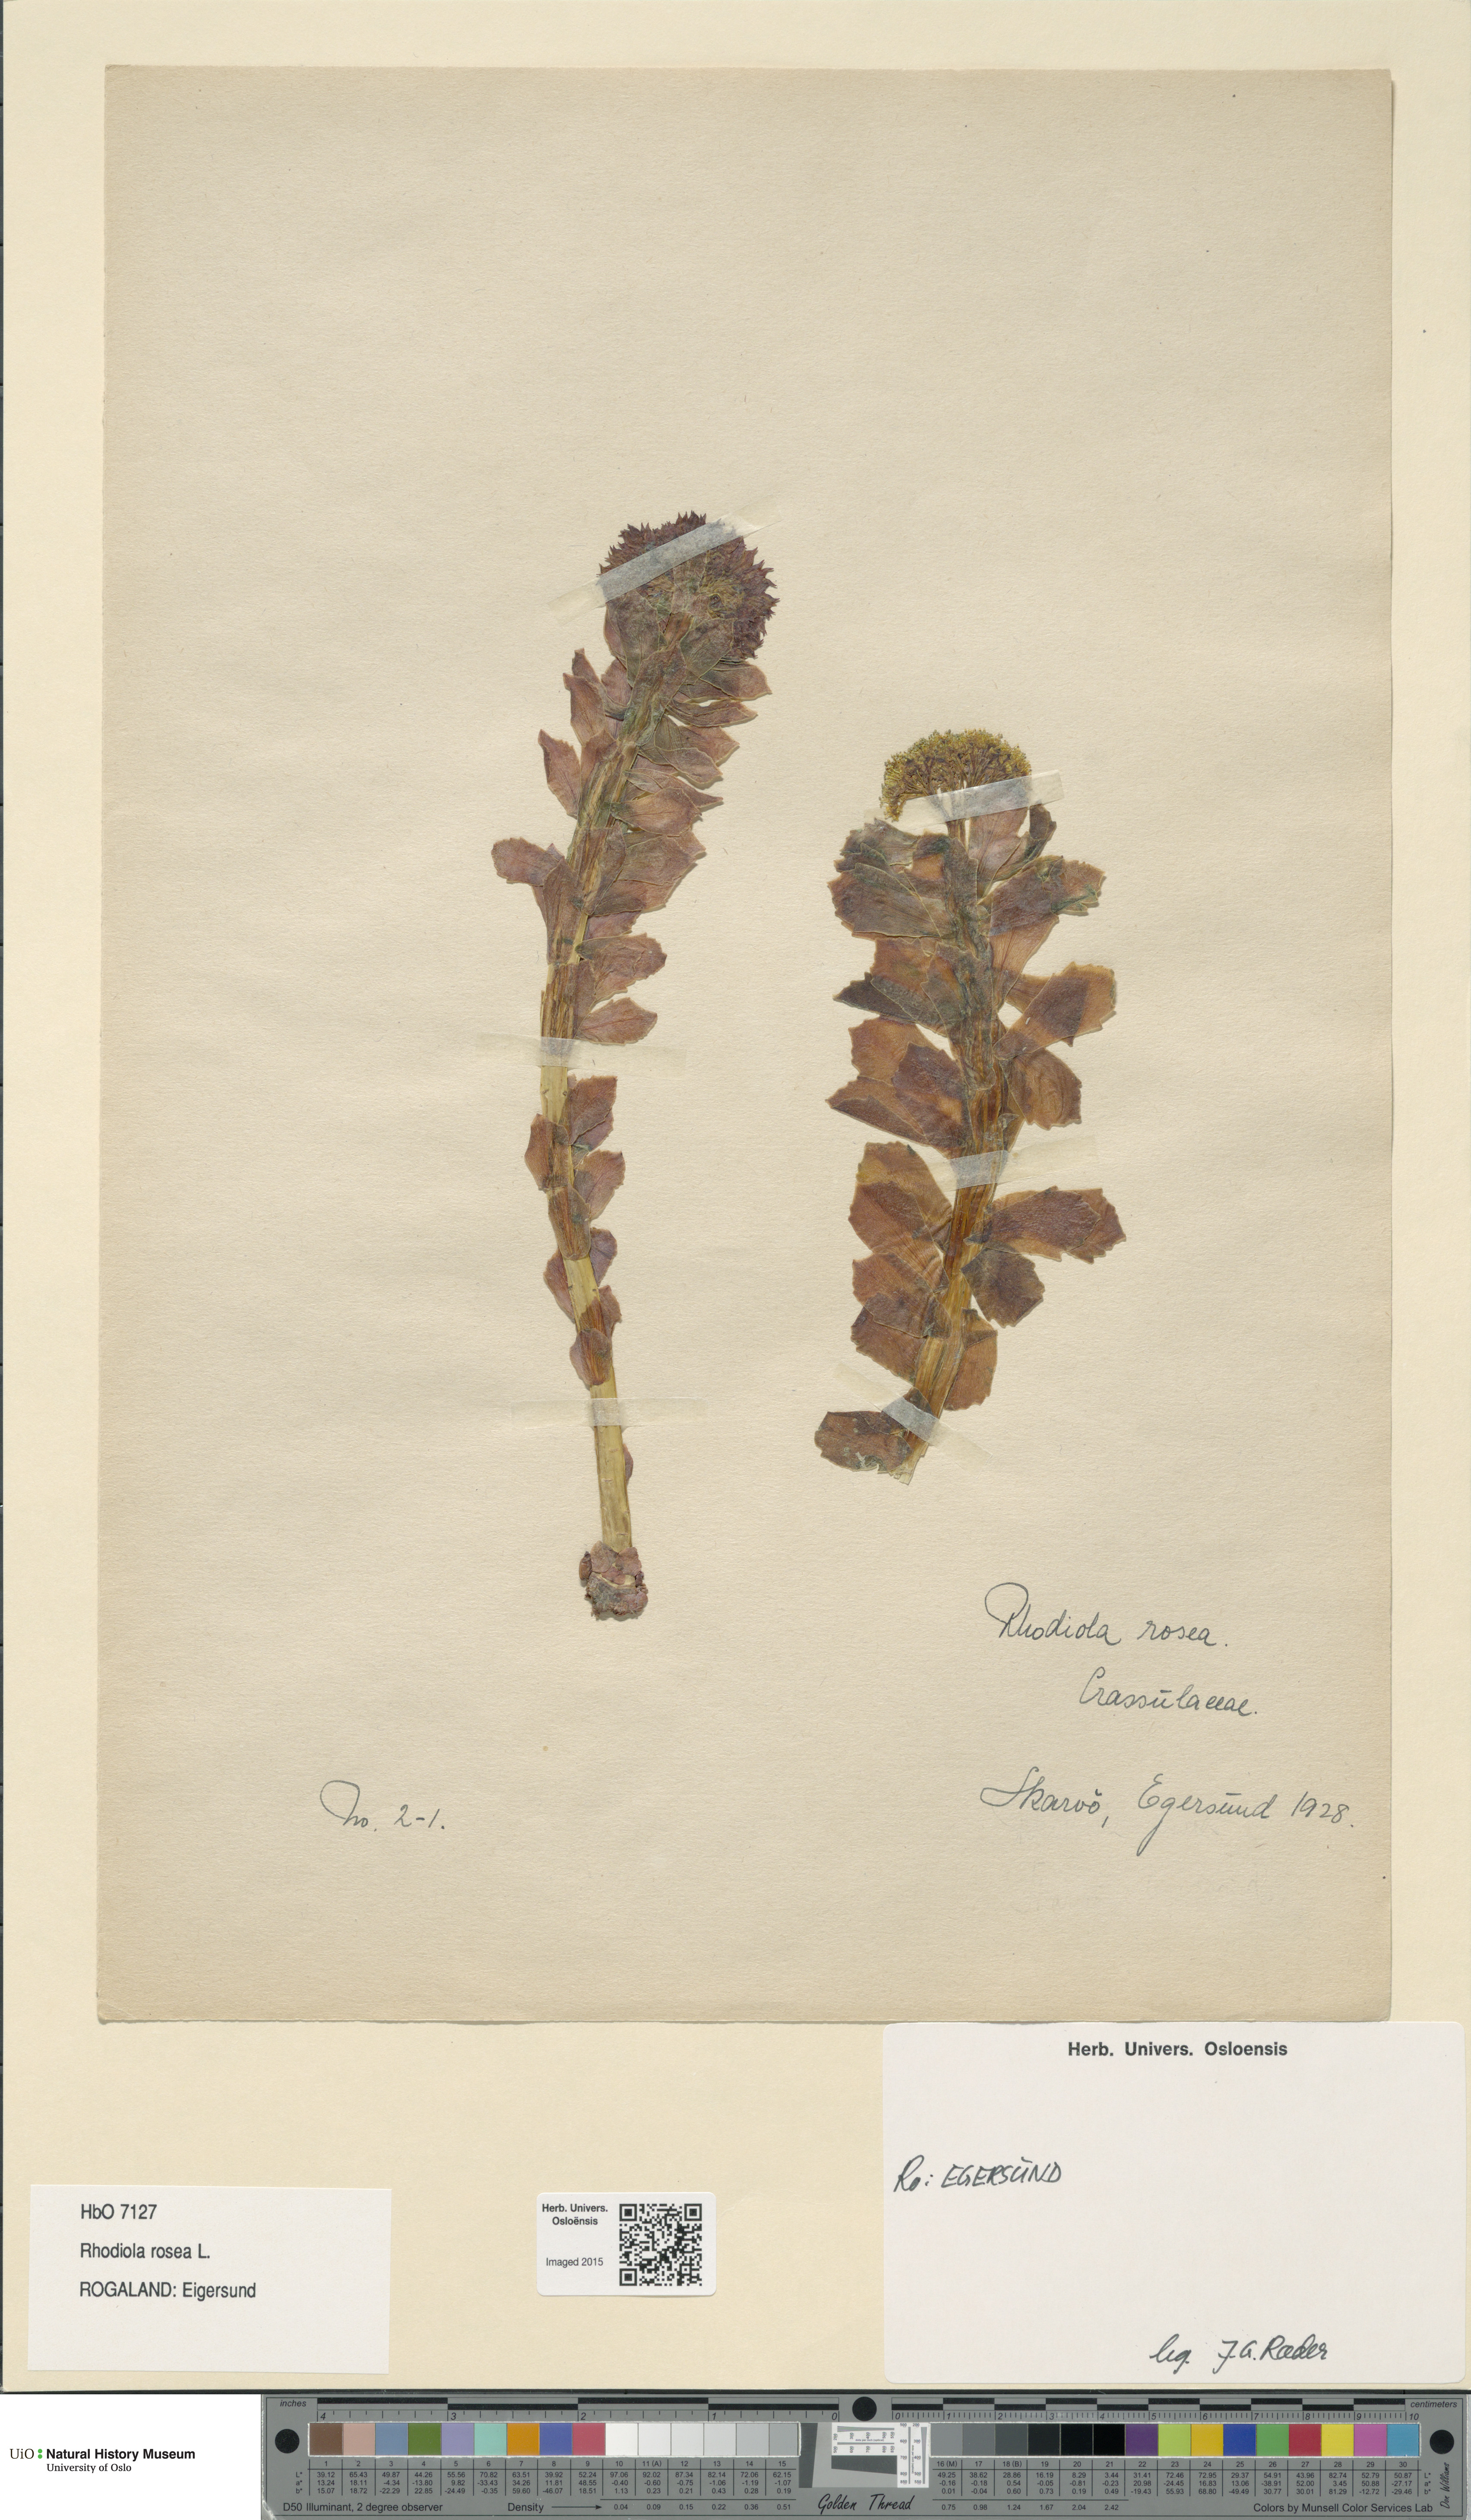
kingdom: Plantae
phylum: Tracheophyta
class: Magnoliopsida
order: Saxifragales
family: Crassulaceae
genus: Rhodiola
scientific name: Rhodiola rosea
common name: Roseroot
